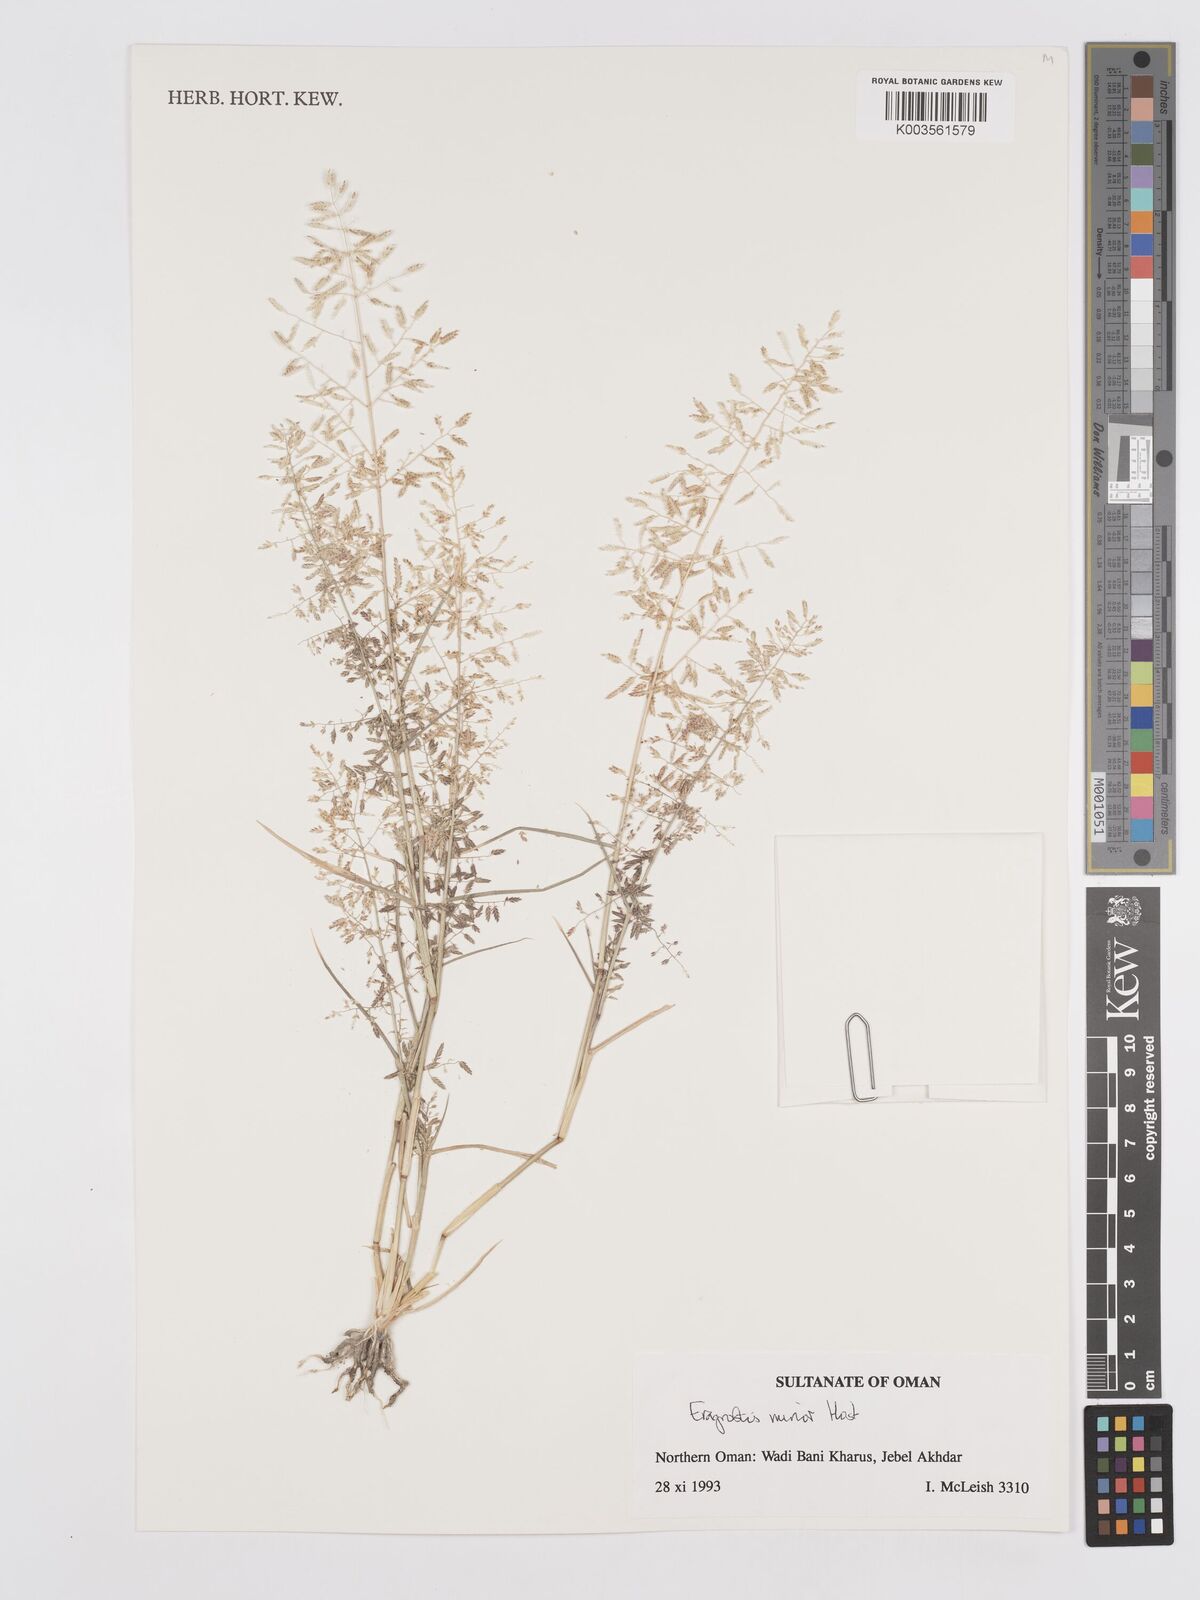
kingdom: Plantae
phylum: Tracheophyta
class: Liliopsida
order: Poales
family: Poaceae
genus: Eragrostis
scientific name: Eragrostis minor
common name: Small love-grass
